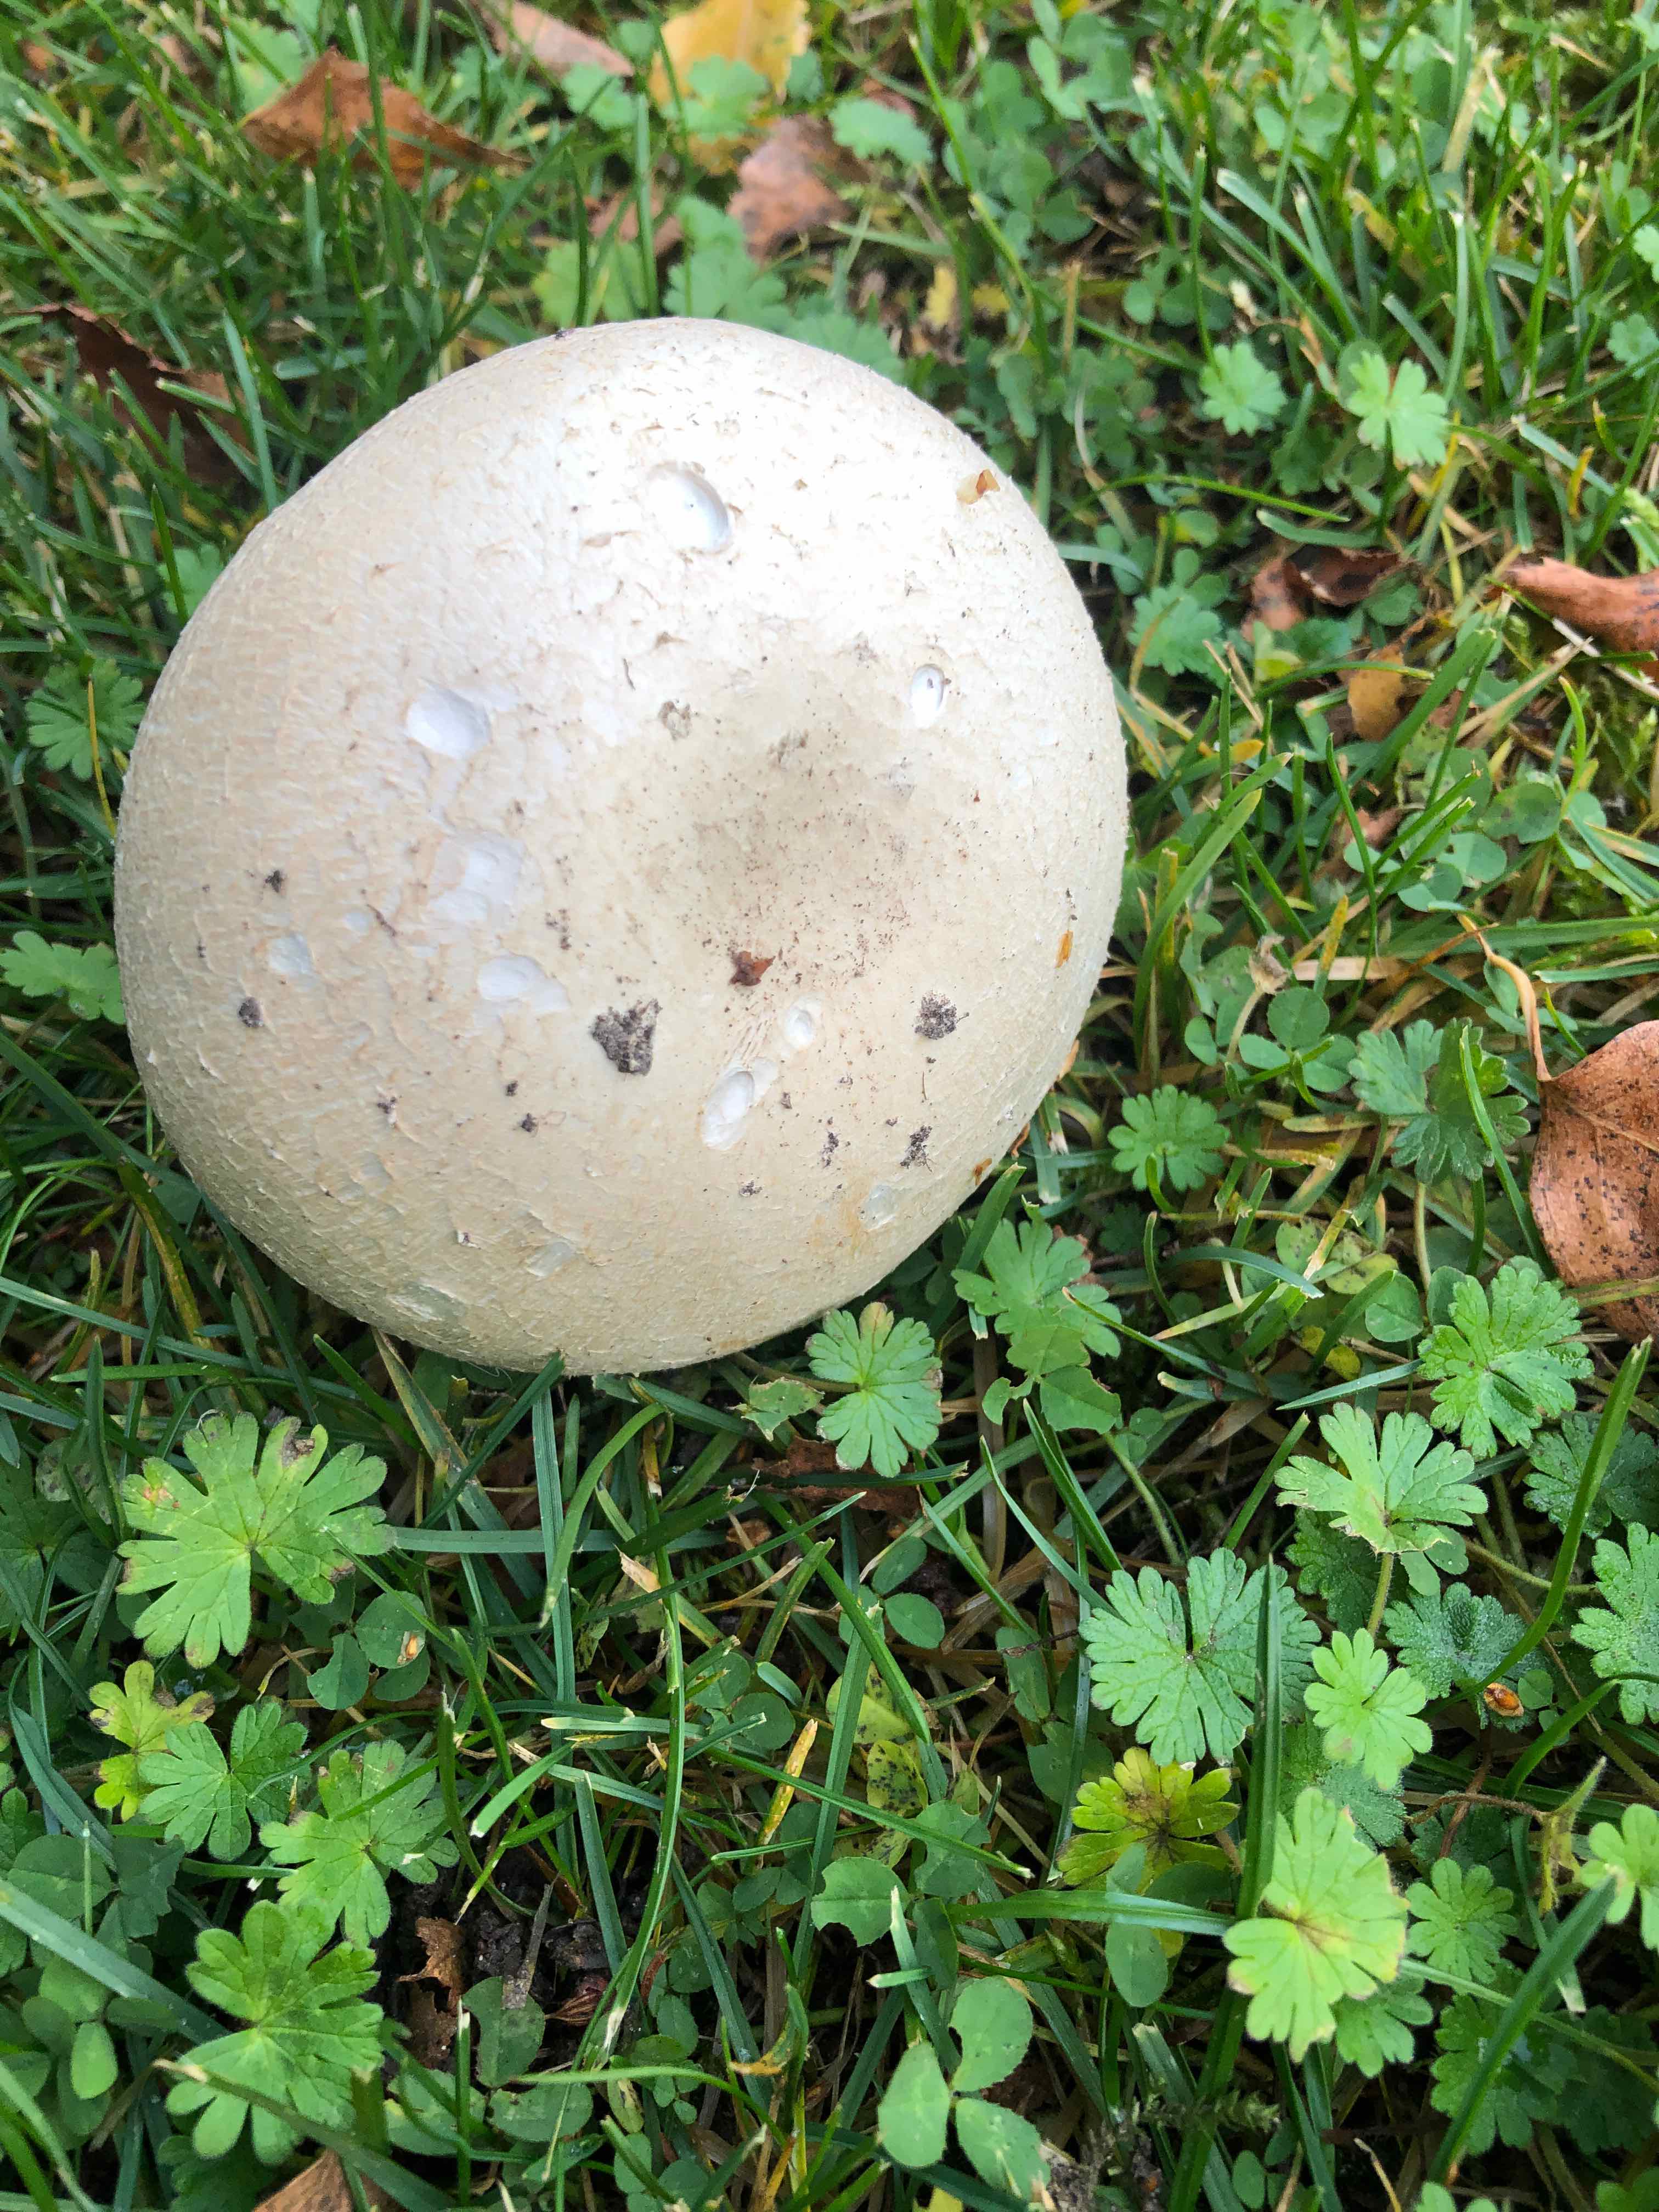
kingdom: Fungi
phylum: Basidiomycota
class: Agaricomycetes
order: Agaricales
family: Agaricaceae
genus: Agaricus
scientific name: Agaricus
